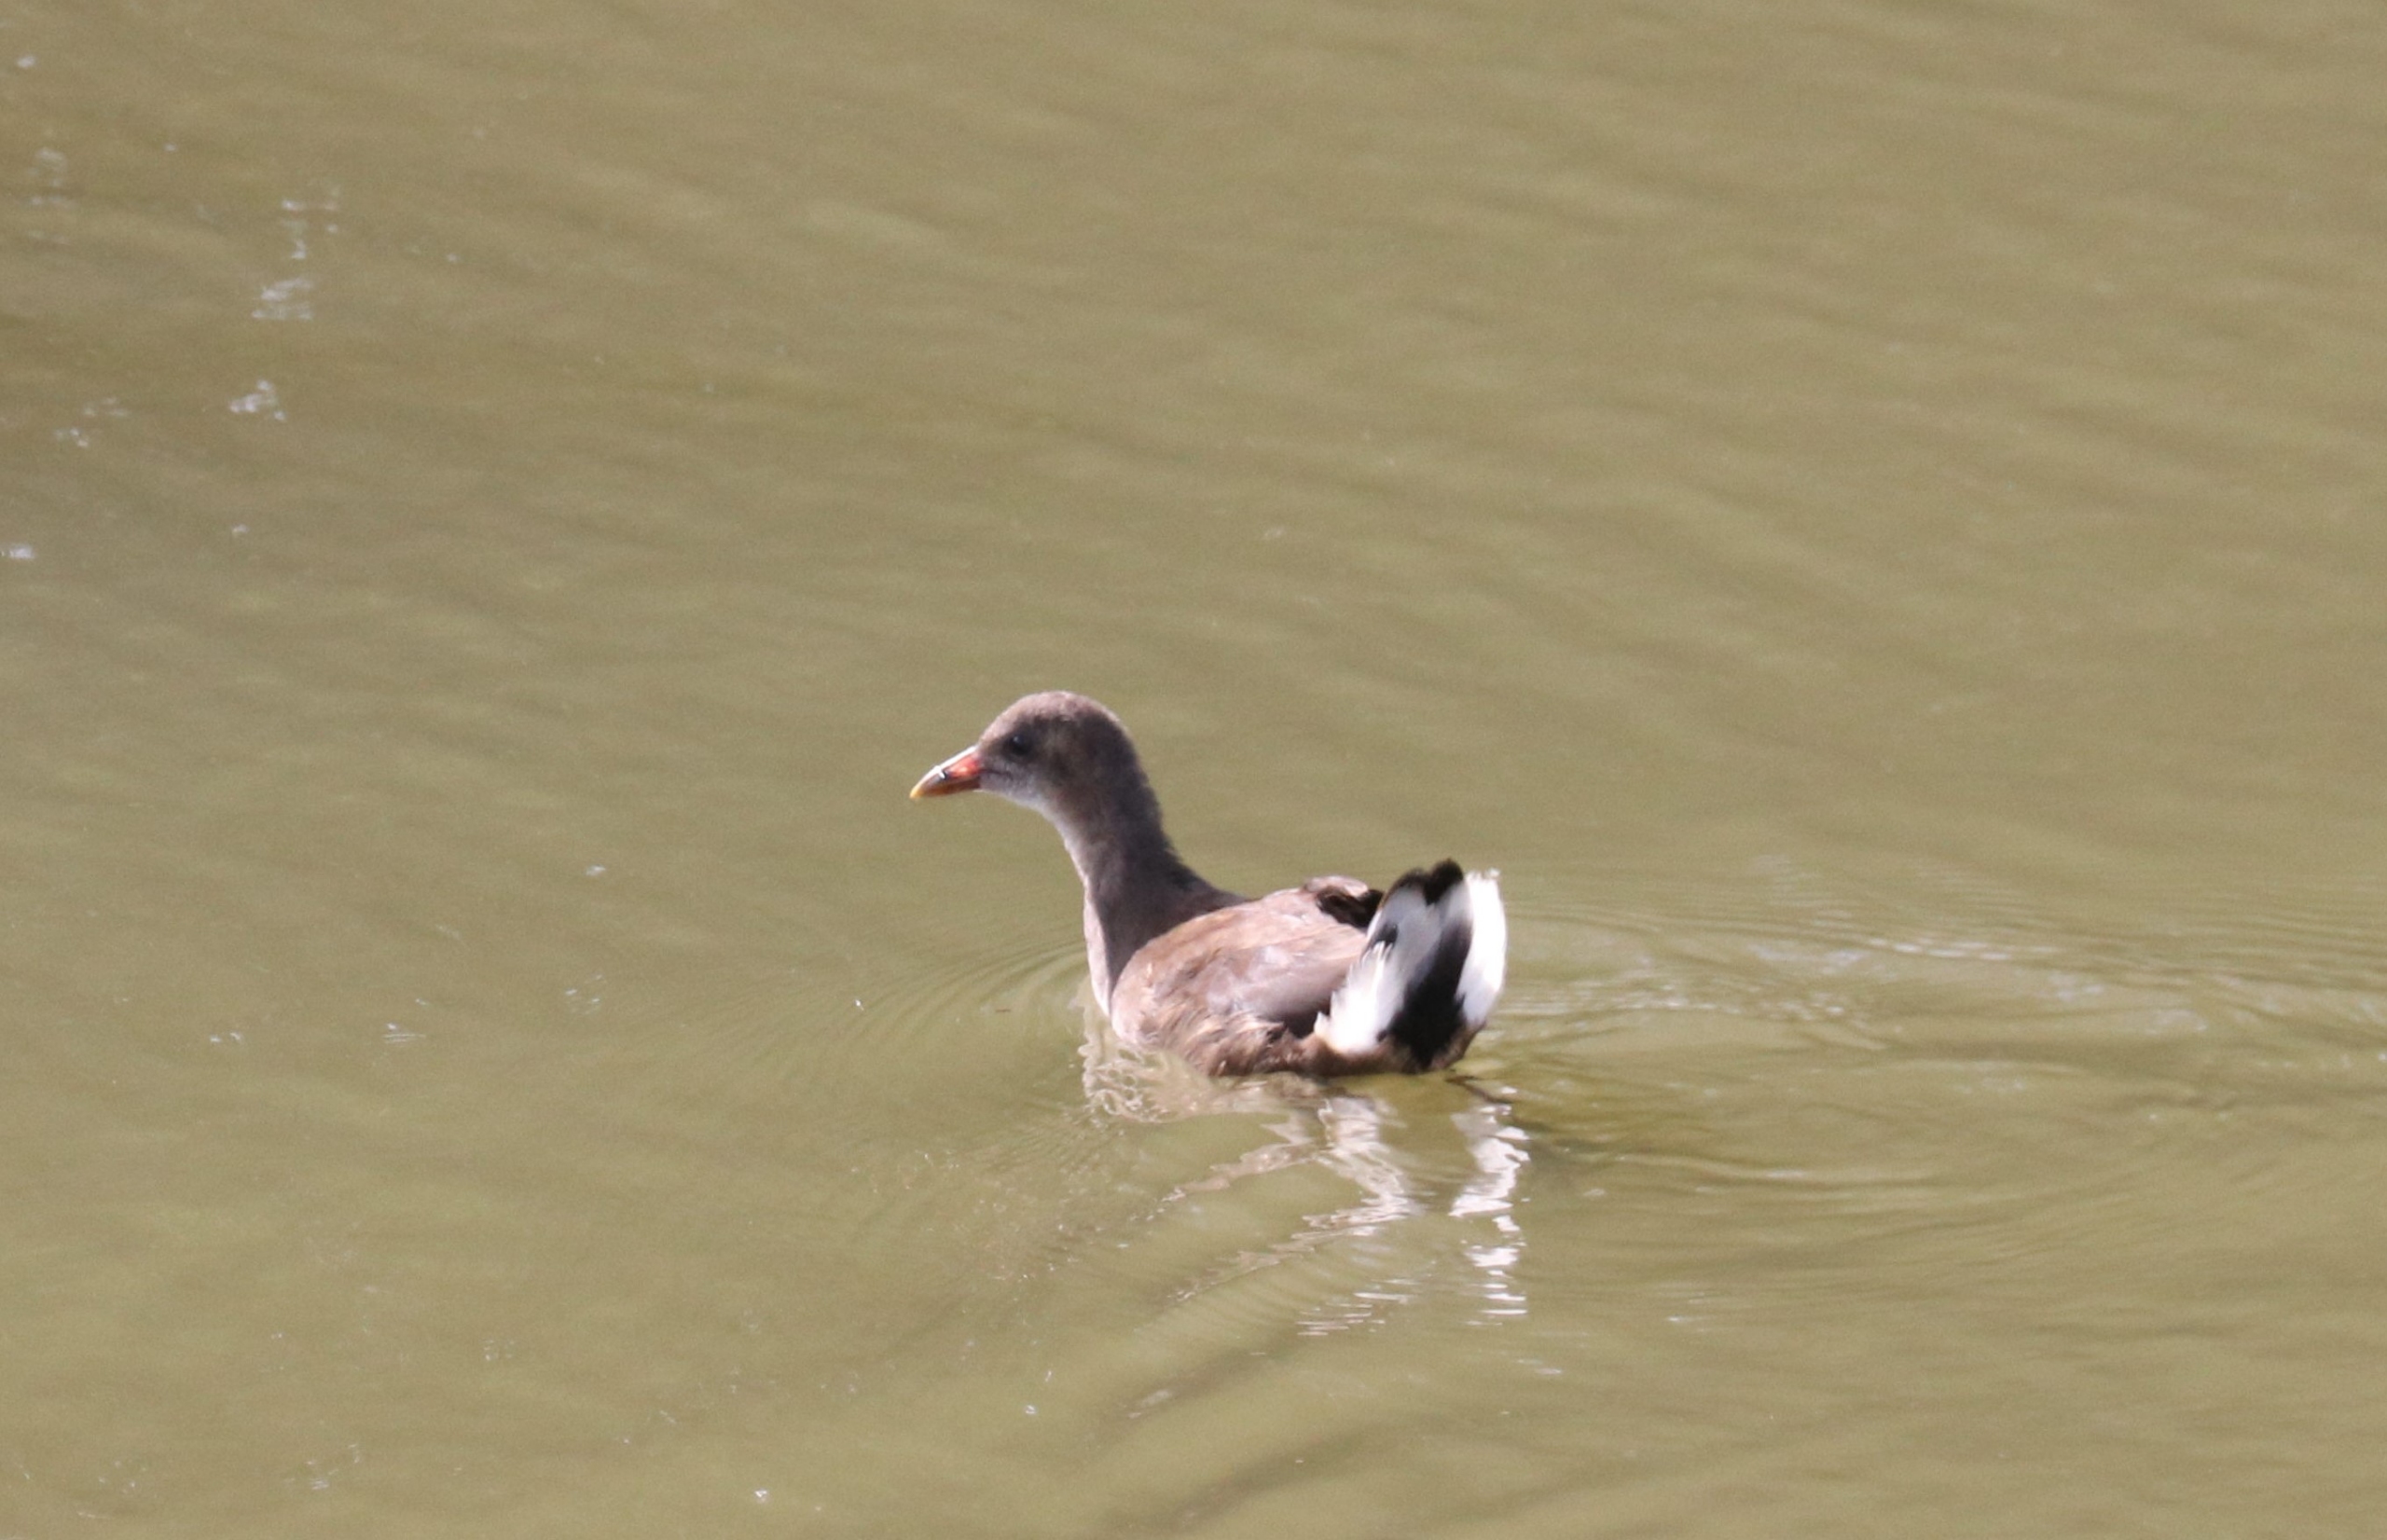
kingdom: Animalia
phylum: Chordata
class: Aves
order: Gruiformes
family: Rallidae
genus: Gallinula
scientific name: Gallinula chloropus
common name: Grønbenet rørhøne
